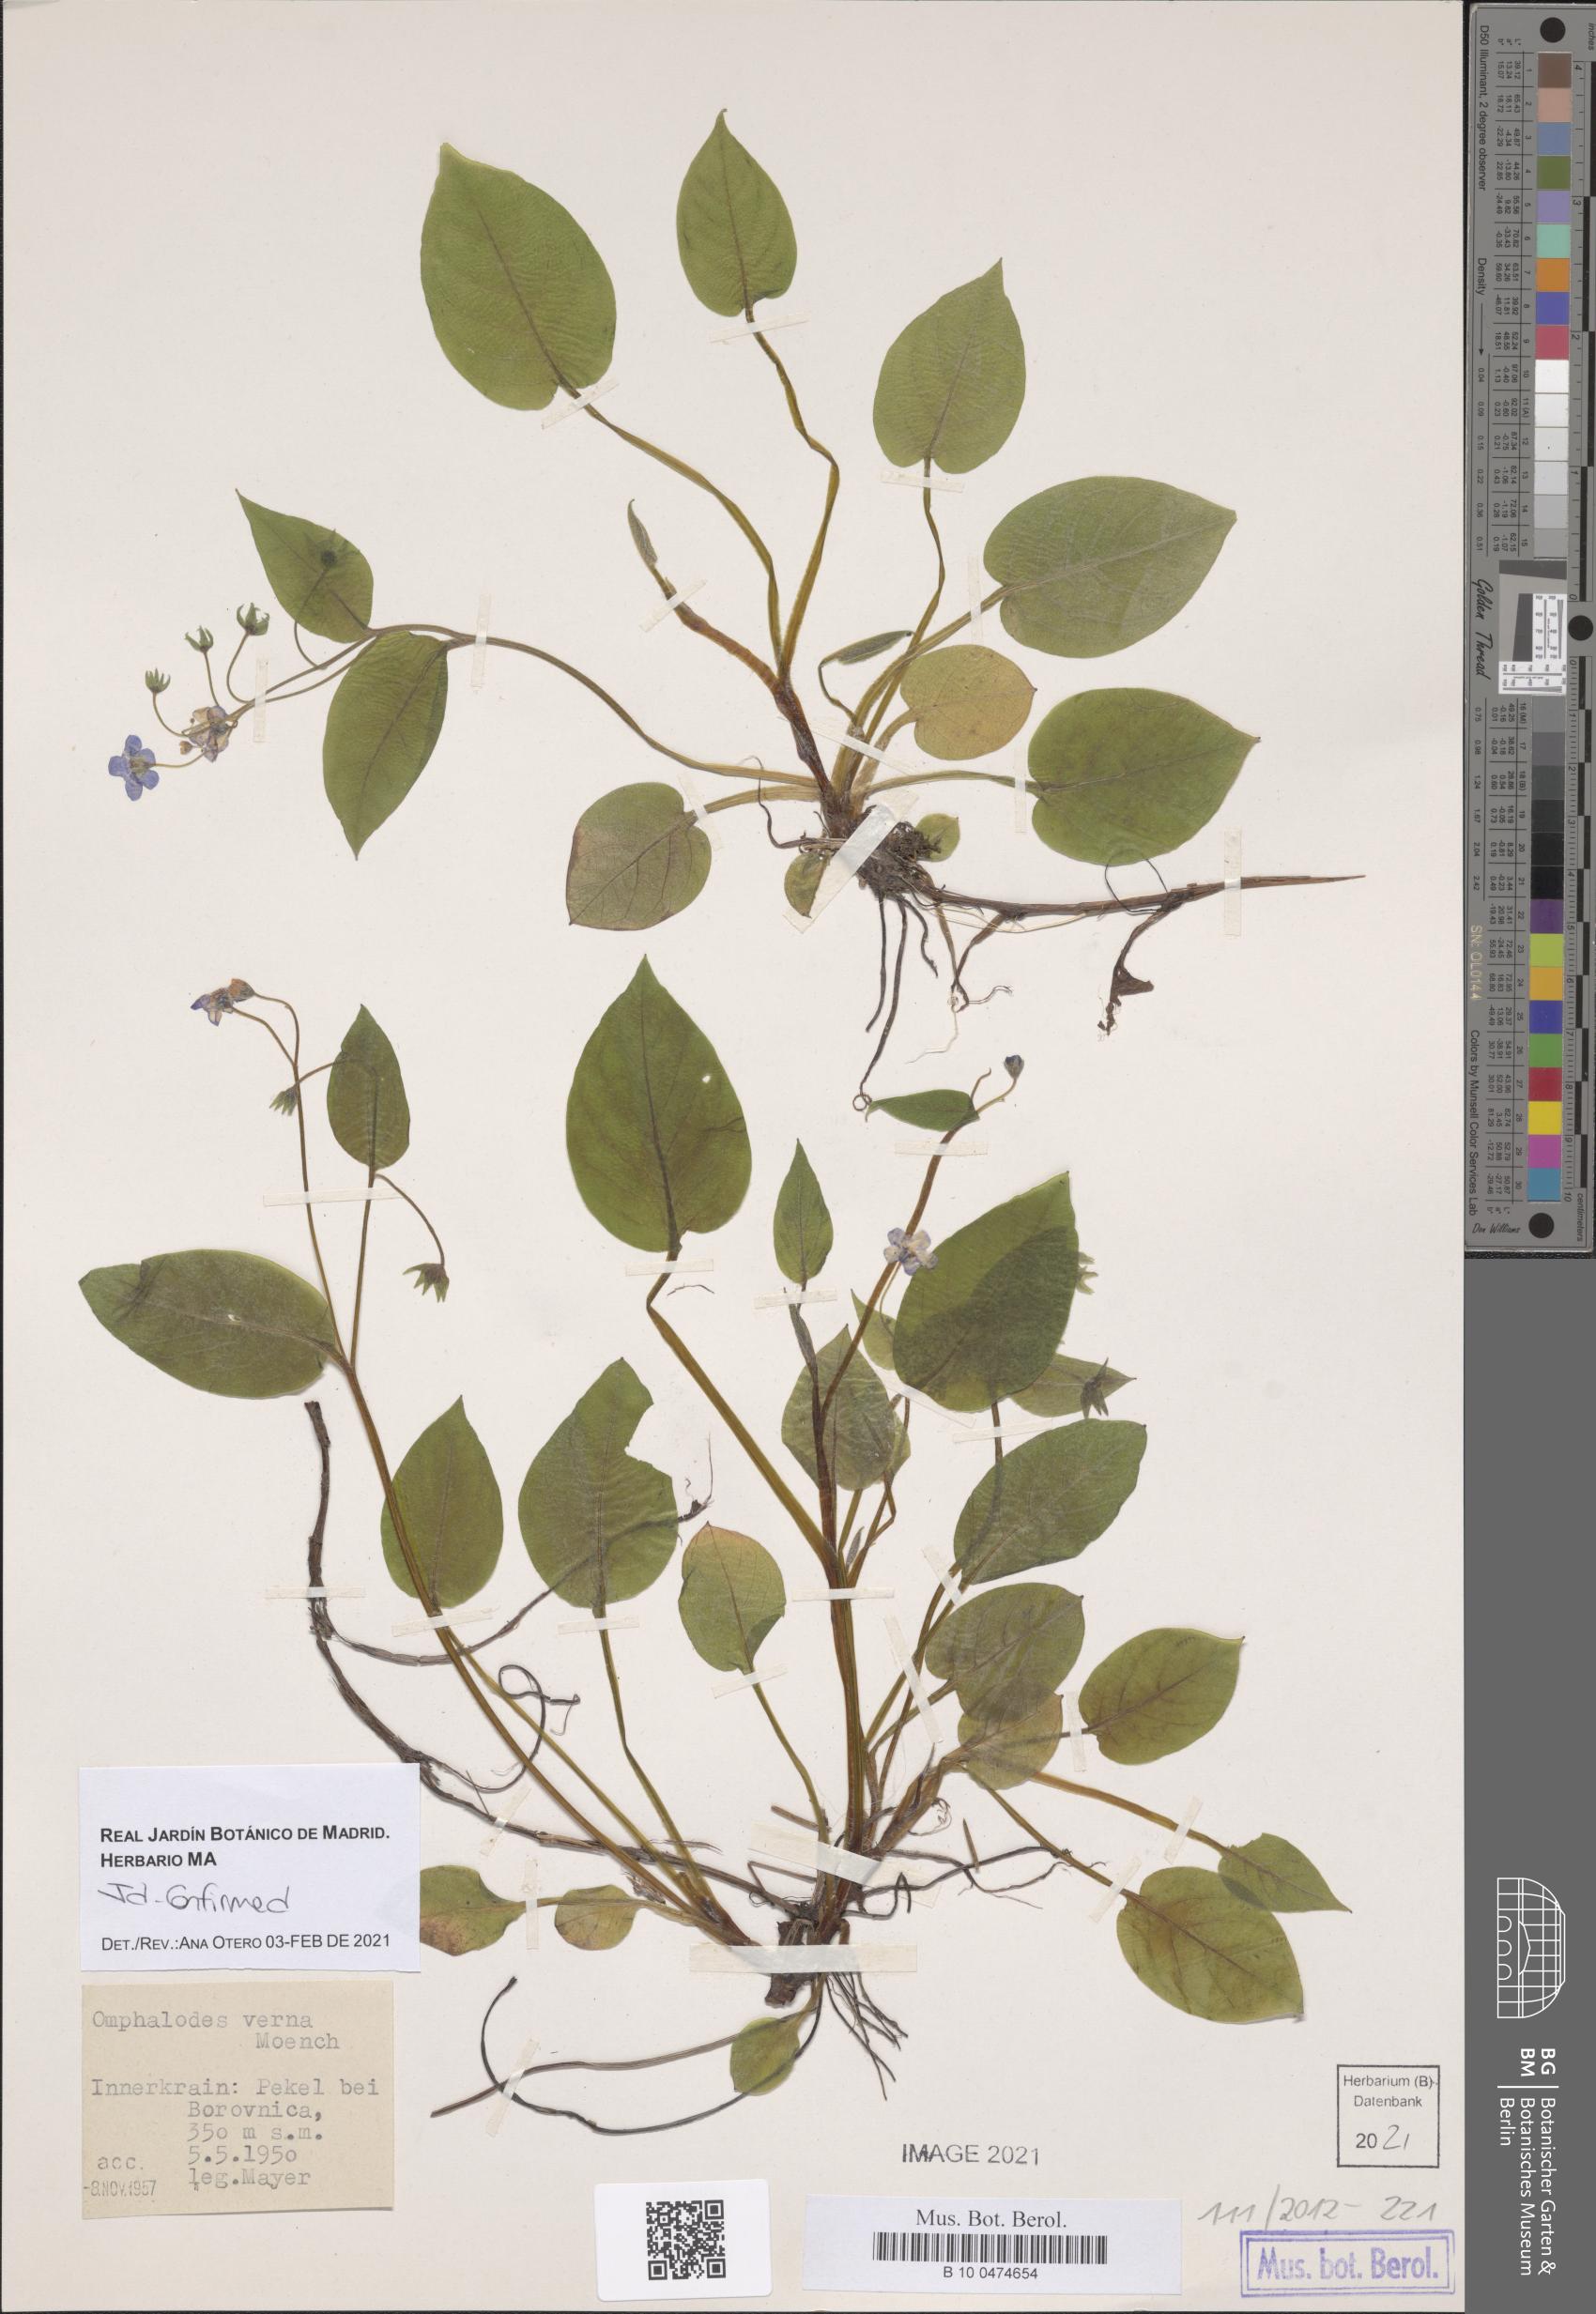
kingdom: Plantae
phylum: Tracheophyta
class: Magnoliopsida
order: Boraginales
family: Boraginaceae
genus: Omphalodes
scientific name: Omphalodes verna
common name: Blue-eyed-mary
